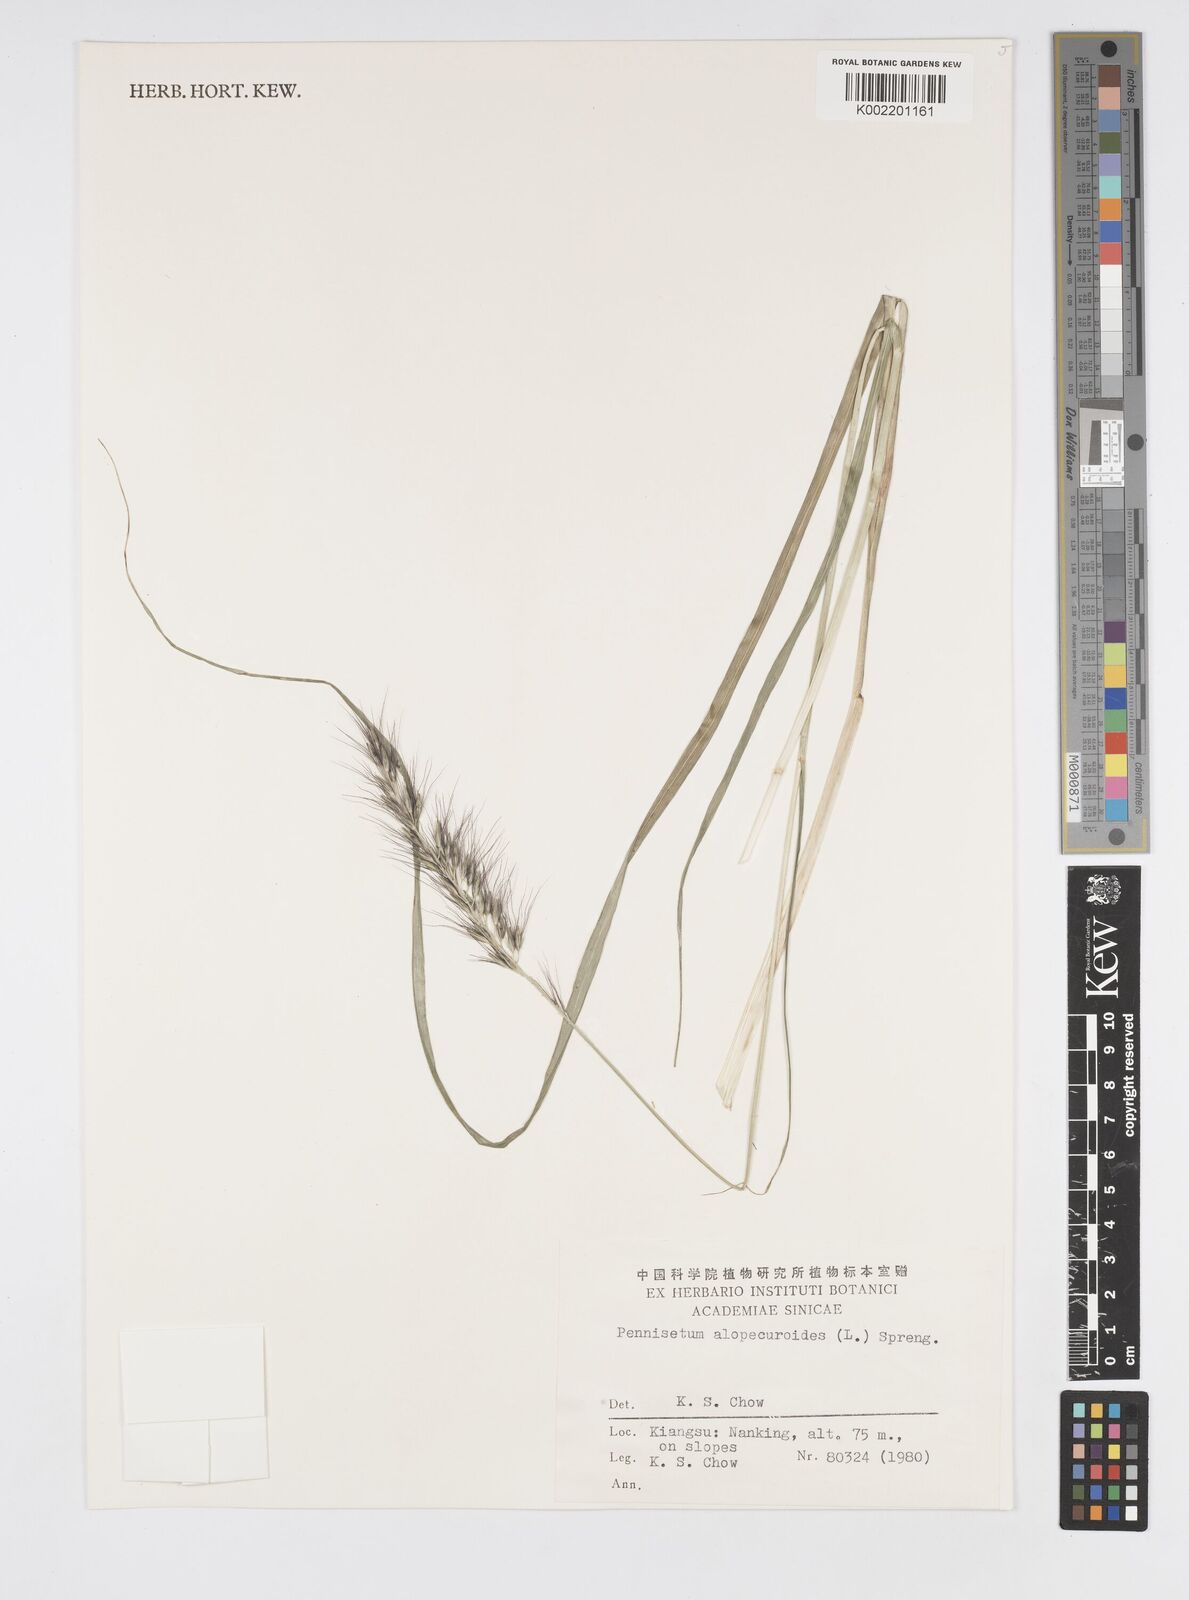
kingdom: Plantae
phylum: Tracheophyta
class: Liliopsida
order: Poales
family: Poaceae
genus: Cenchrus
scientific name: Cenchrus alopecuroides
